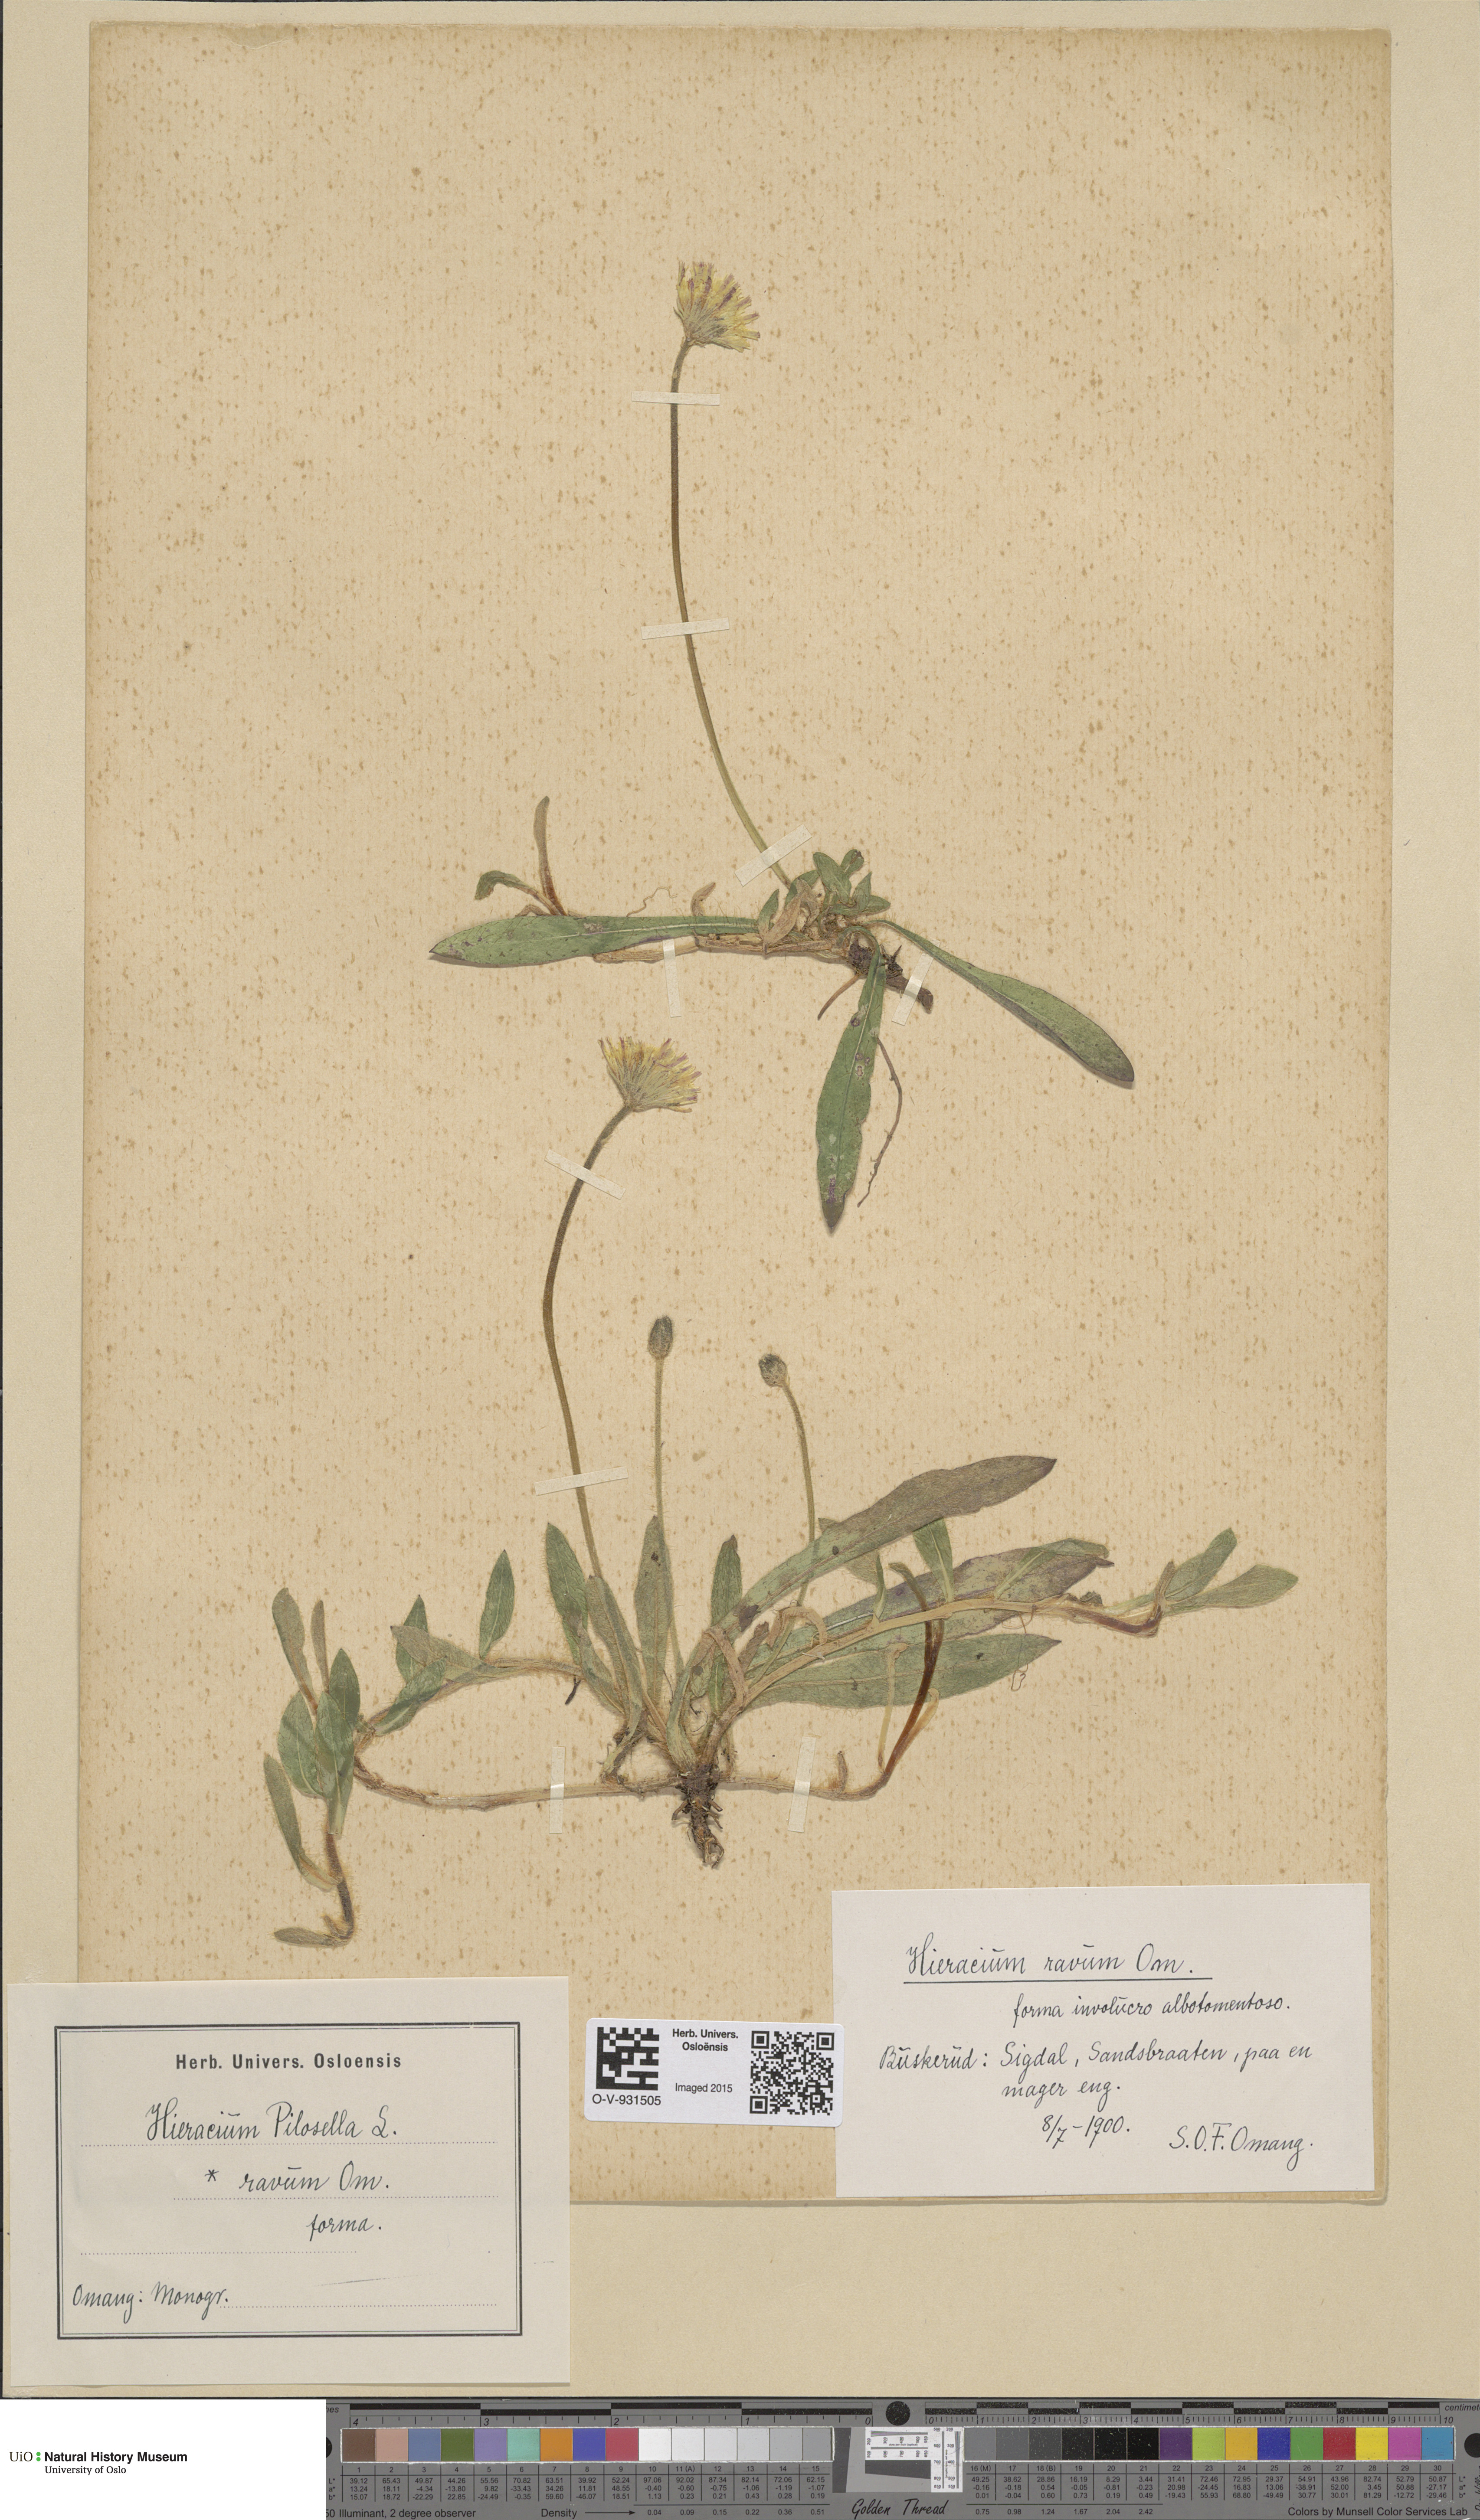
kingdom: Plantae
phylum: Tracheophyta
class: Magnoliopsida
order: Asterales
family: Asteraceae
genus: Pilosella
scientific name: Pilosella officinarum
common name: Mouse-ear hawkweed
